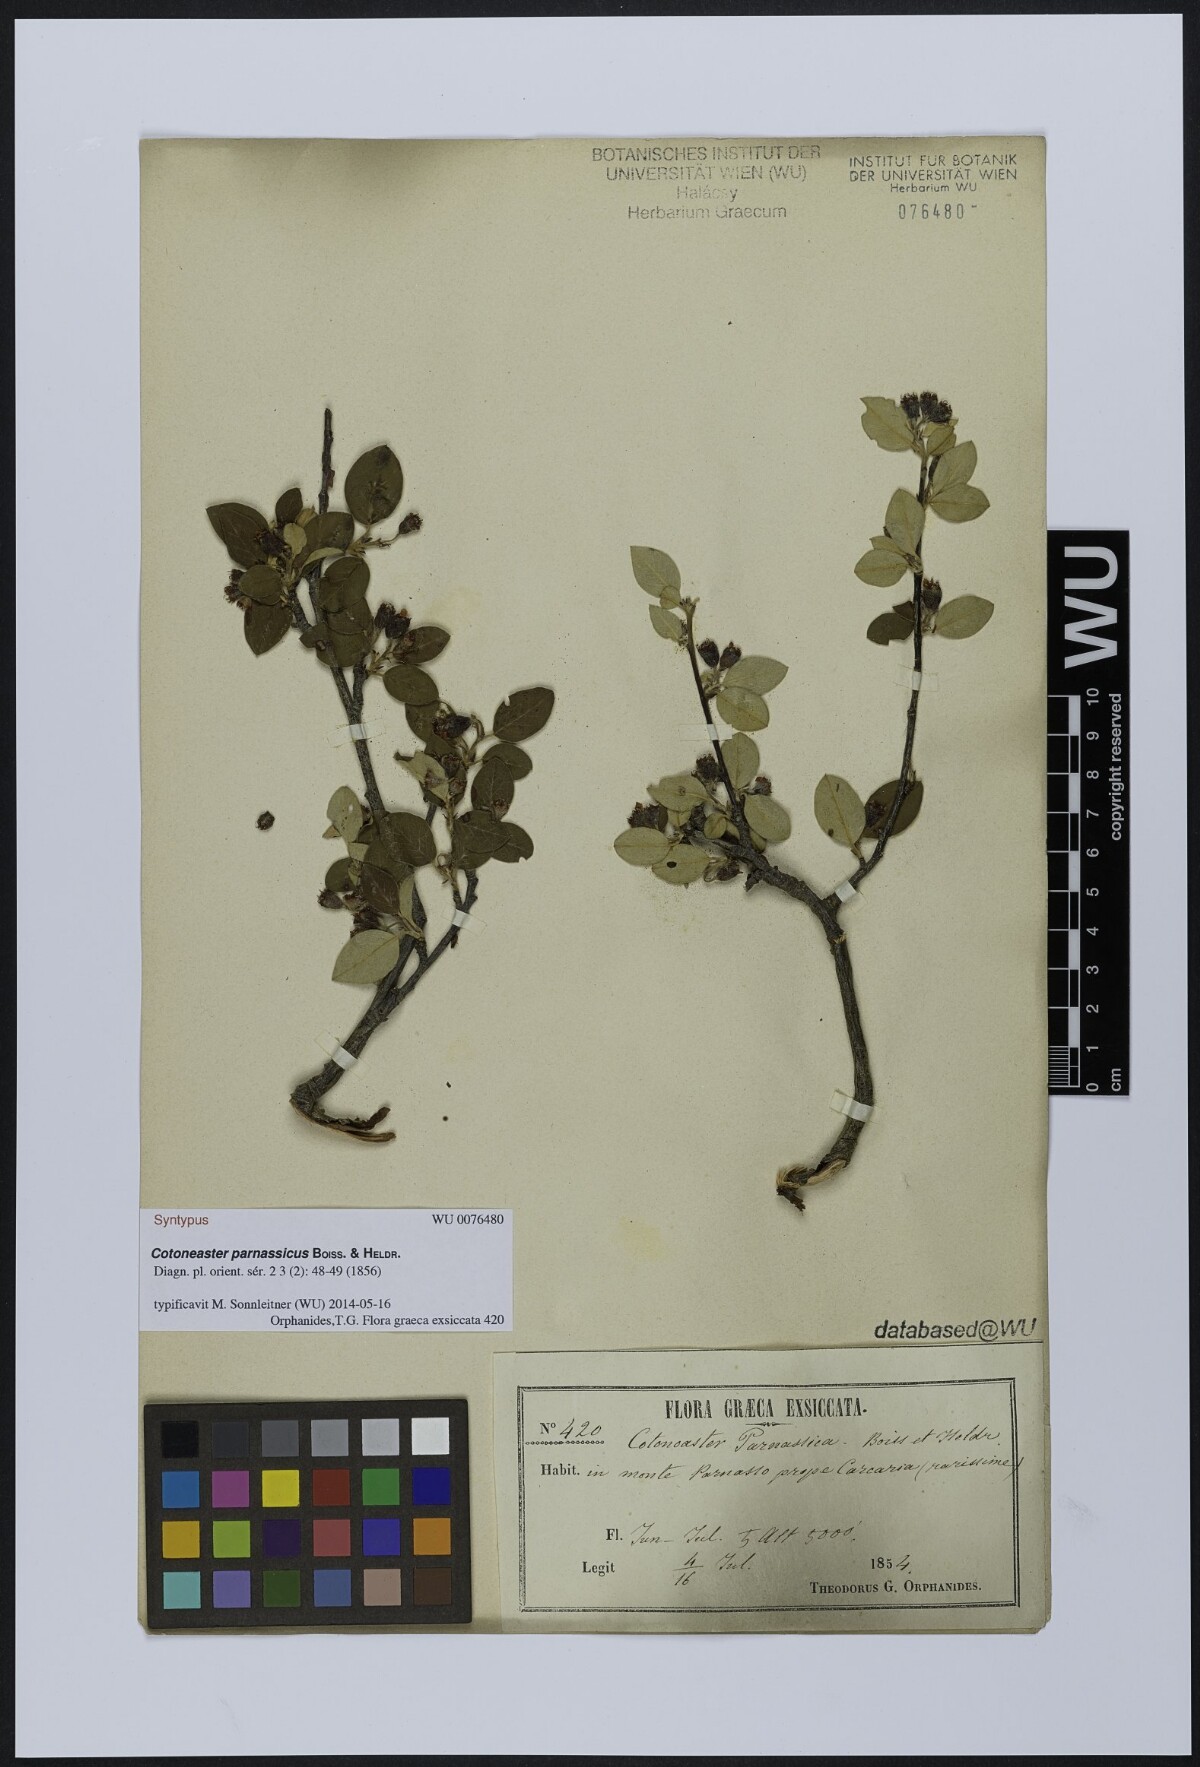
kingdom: Plantae
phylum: Tracheophyta
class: Magnoliopsida
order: Rosales
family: Rosaceae
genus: Cotoneaster
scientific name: Cotoneaster parnassicus
